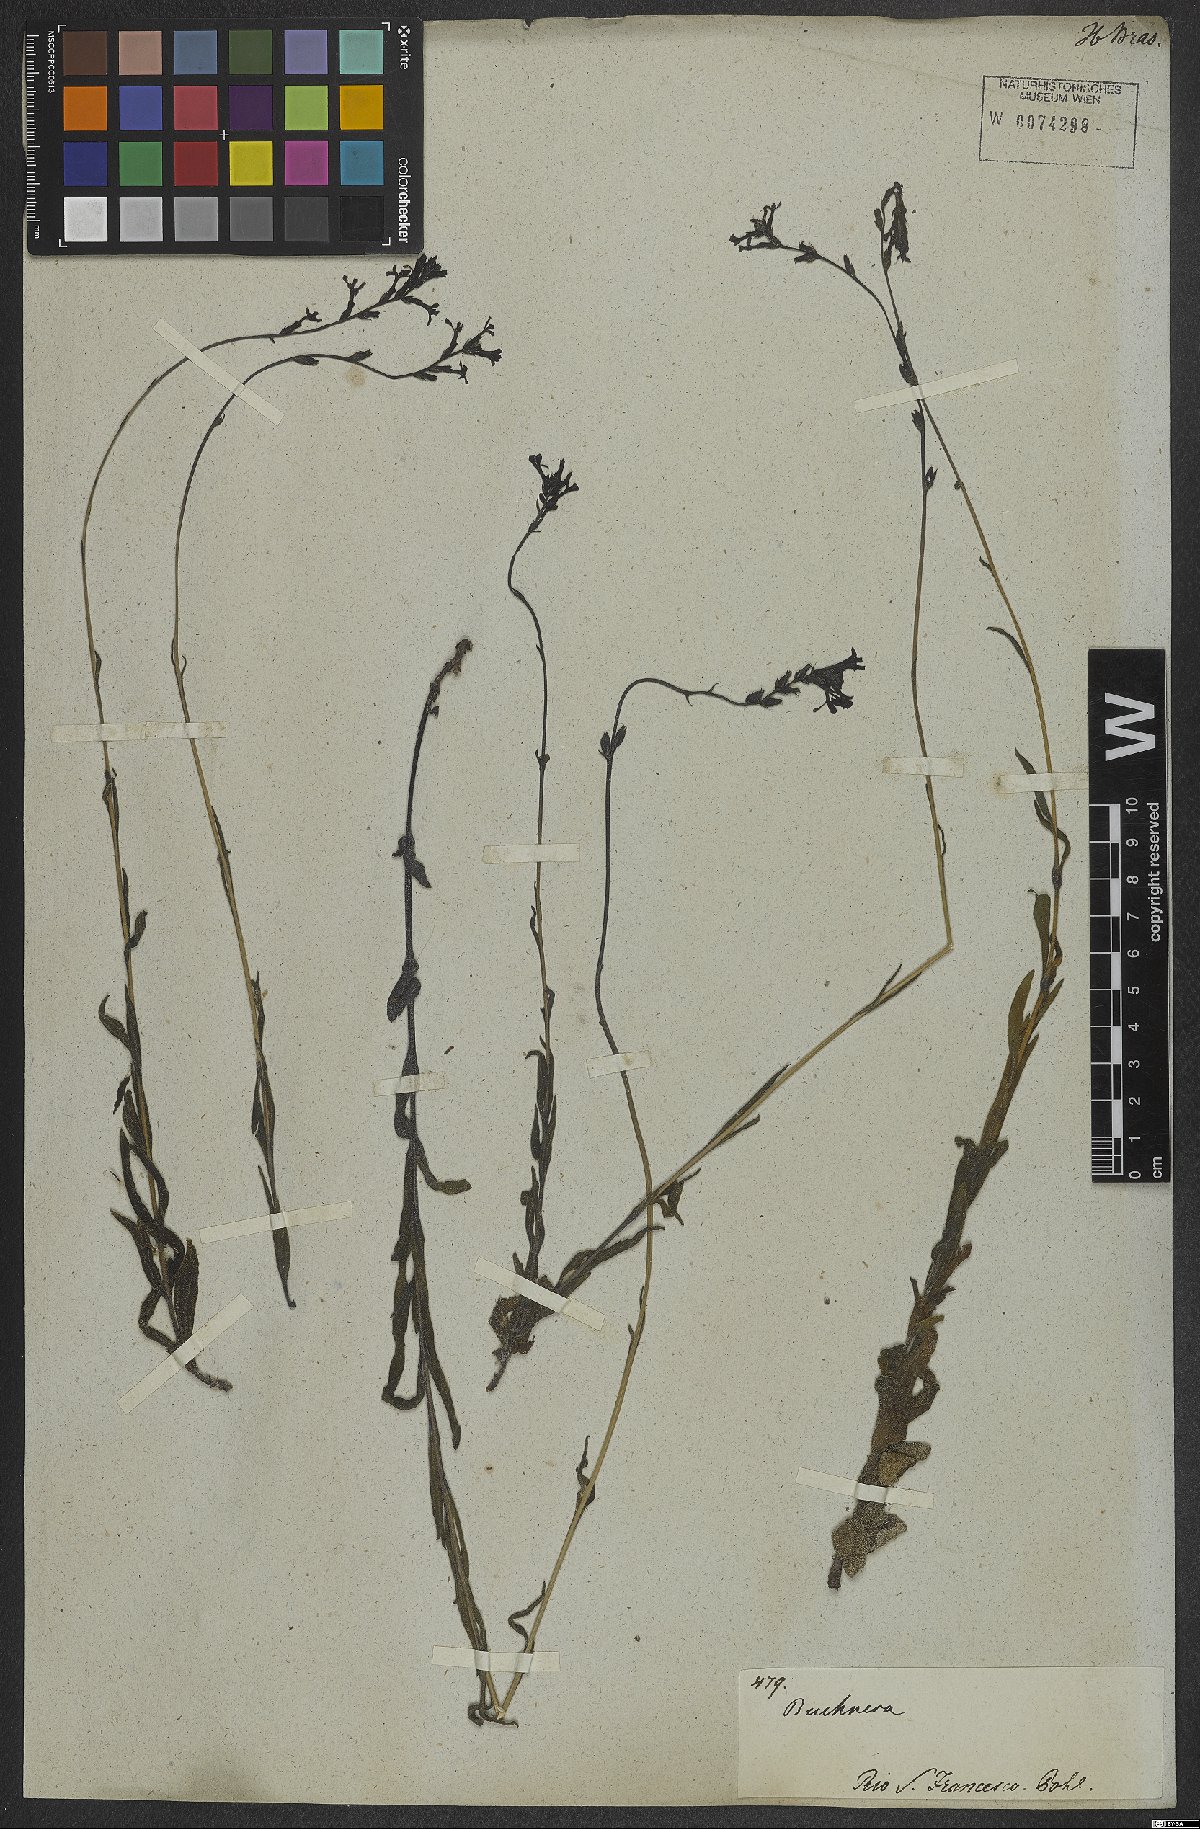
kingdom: Plantae
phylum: Tracheophyta
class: Magnoliopsida
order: Lamiales
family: Orobanchaceae
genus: Buchnera
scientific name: Buchnera ternifolia
